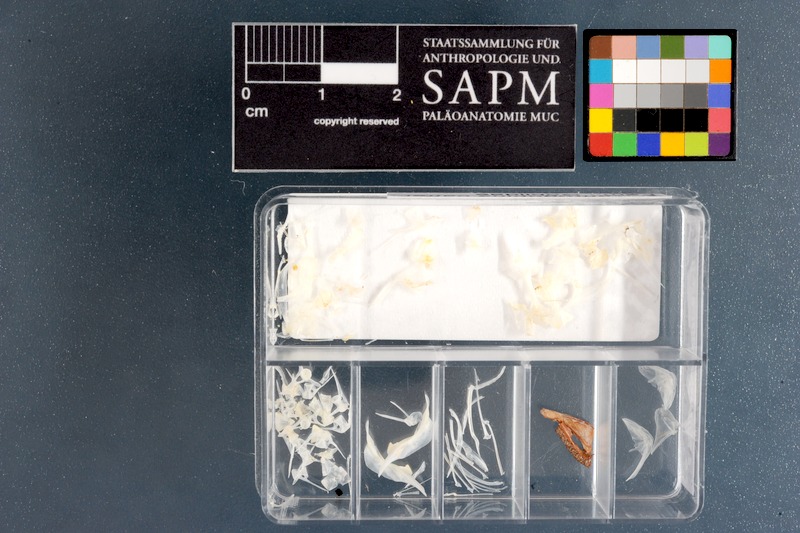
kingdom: Animalia
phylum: Chordata
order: Perciformes
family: Gobiidae
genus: Caffrogobius
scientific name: Caffrogobius caffer
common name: Banded goby
